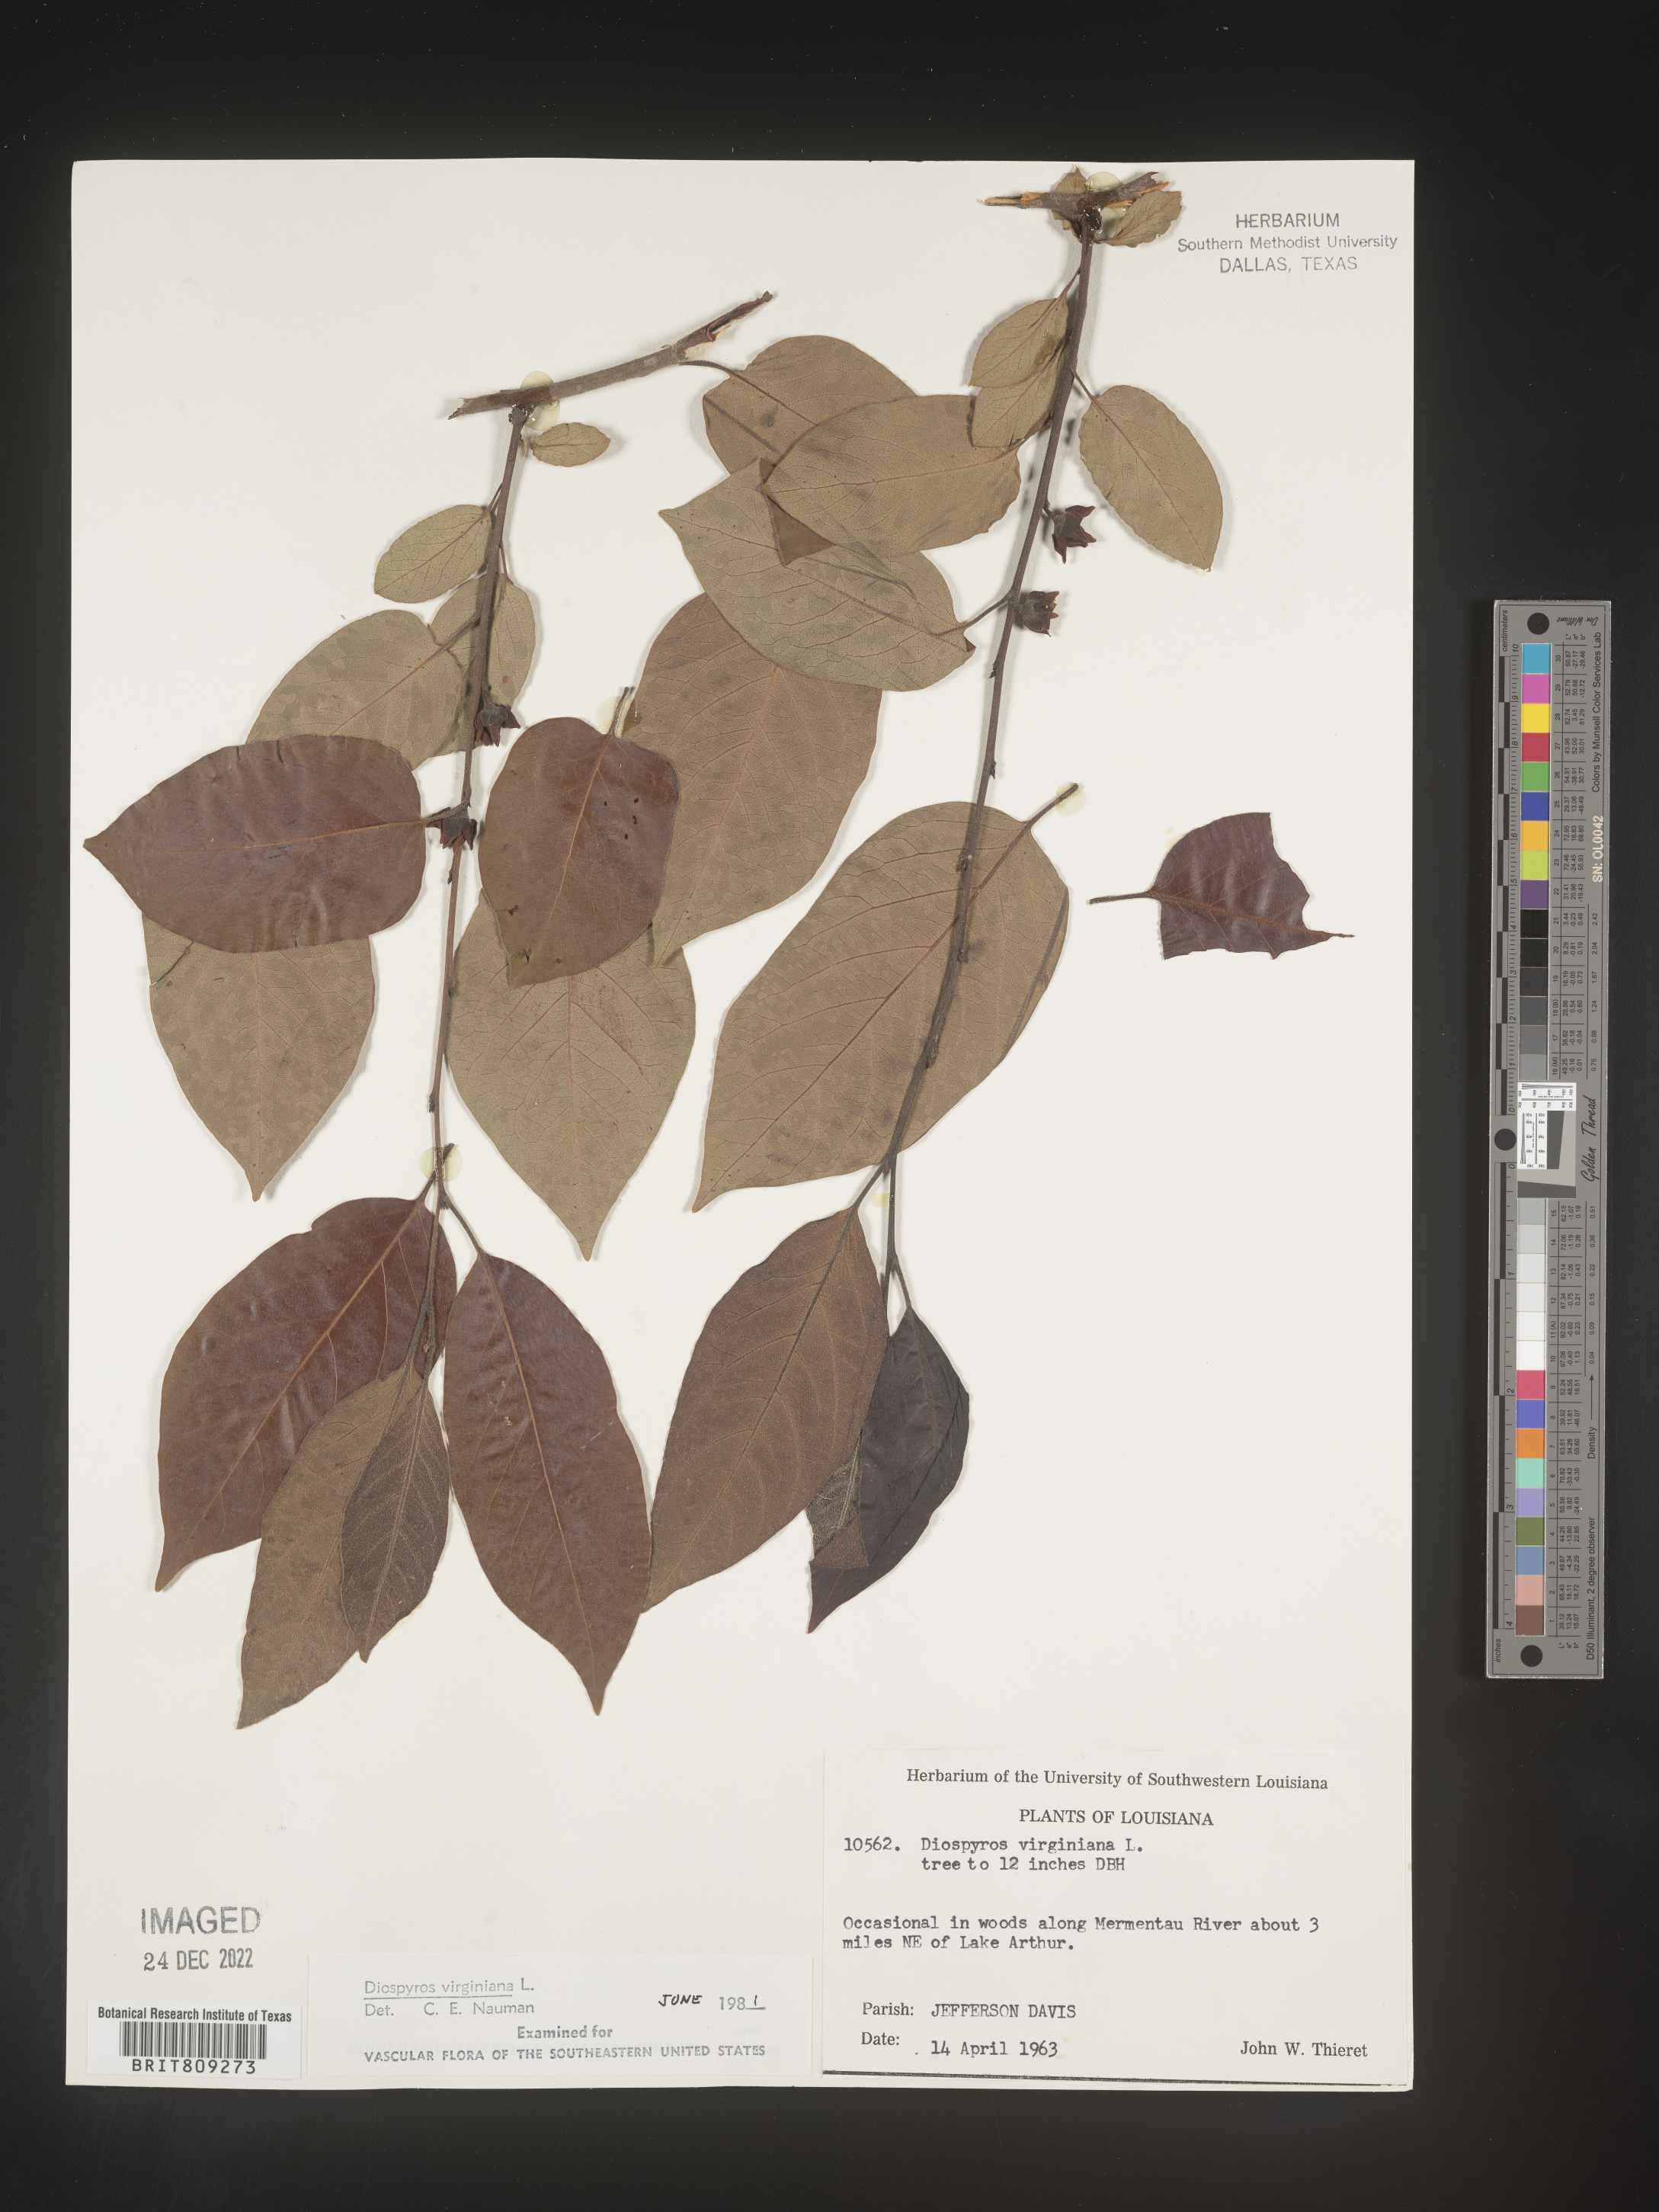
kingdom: Plantae
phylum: Tracheophyta
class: Magnoliopsida
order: Ericales
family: Ebenaceae
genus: Diospyros
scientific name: Diospyros virginiana
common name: Persimmon
